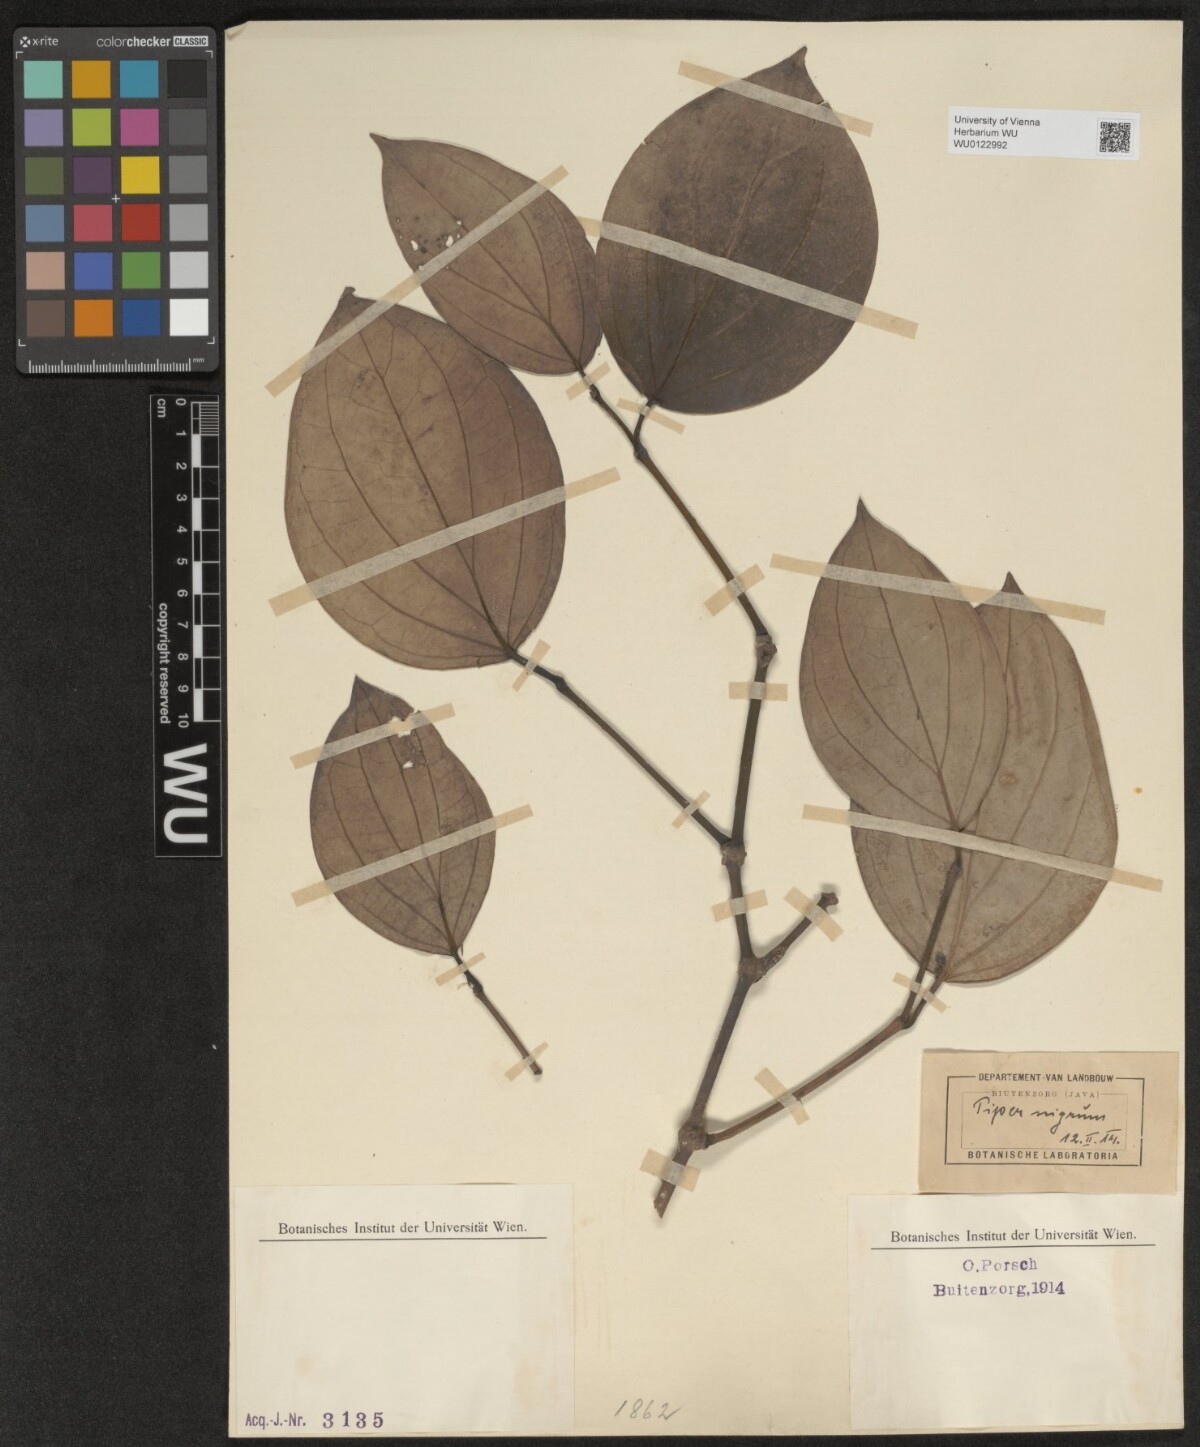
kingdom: Plantae
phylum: Tracheophyta
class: Magnoliopsida
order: Piperales
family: Piperaceae
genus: Piper
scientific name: Piper nigrum
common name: Black pepper
